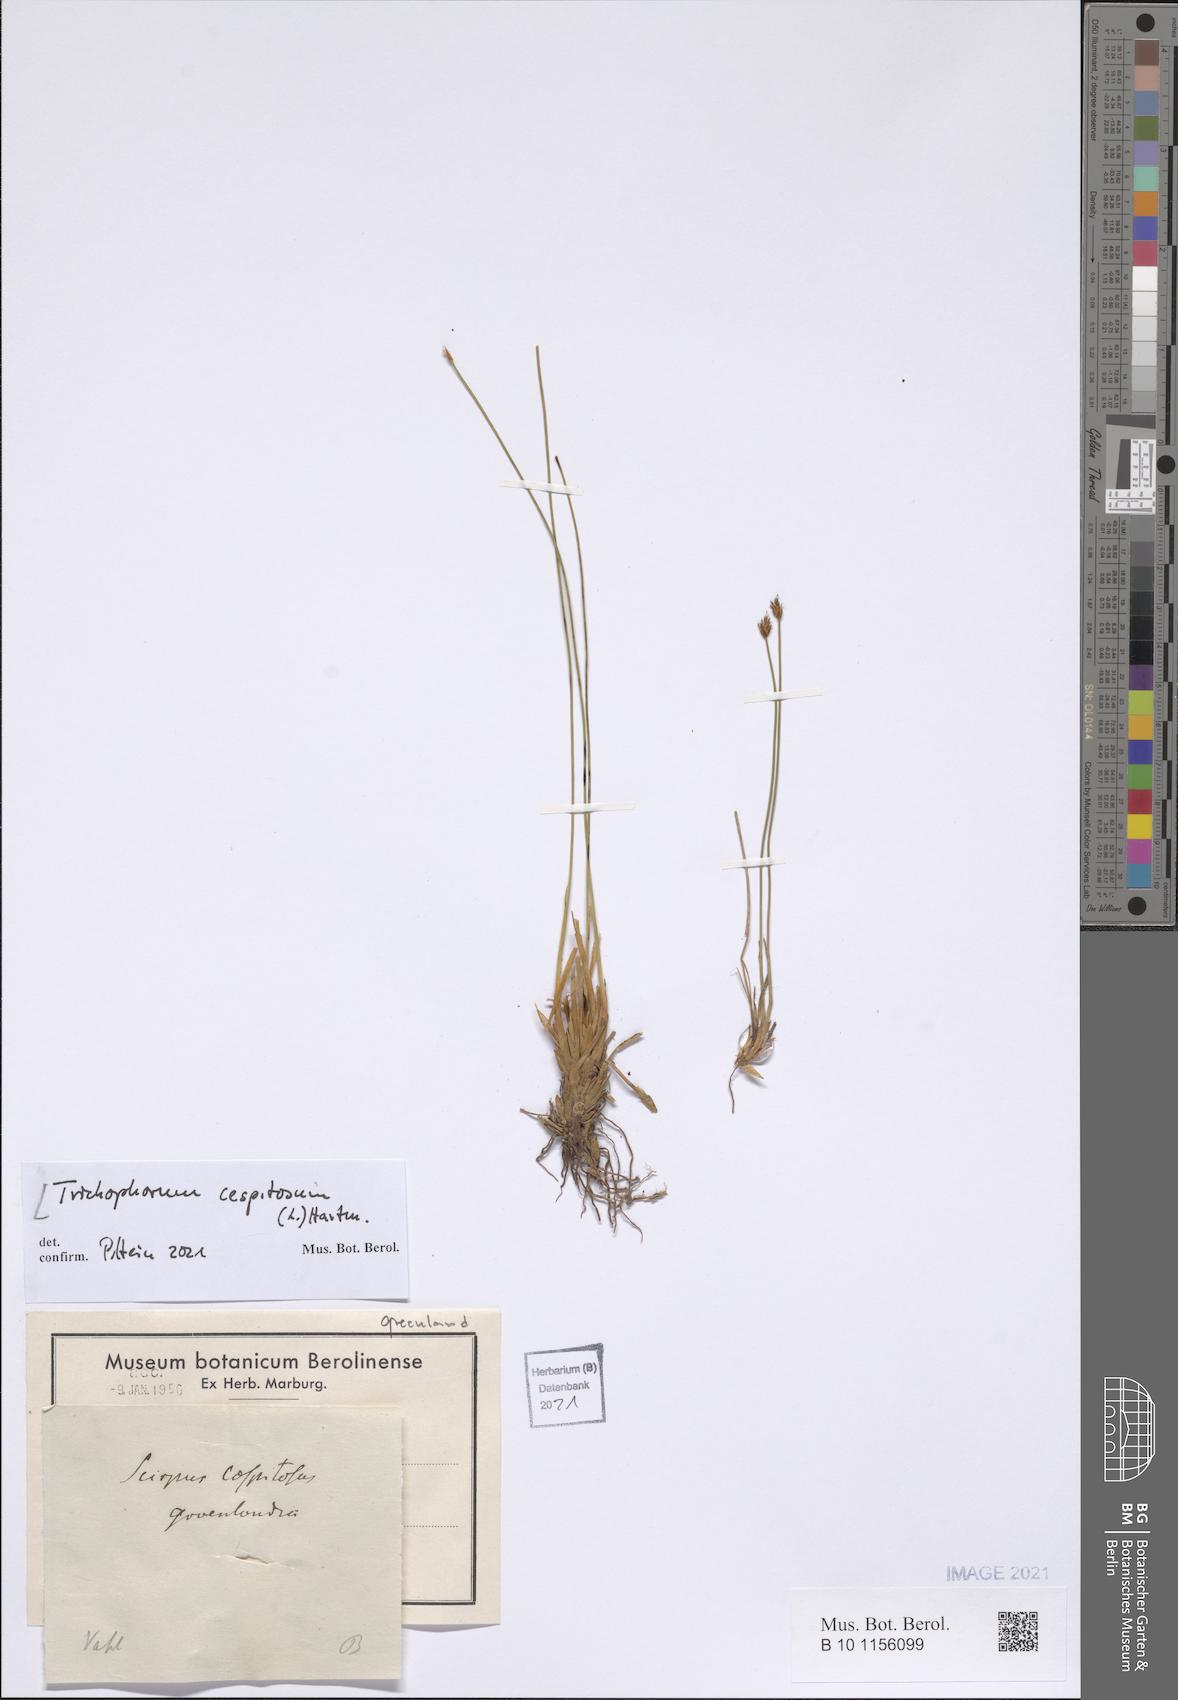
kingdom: Plantae
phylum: Tracheophyta
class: Liliopsida
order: Poales
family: Cyperaceae
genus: Trichophorum
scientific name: Trichophorum cespitosum
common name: Cespitose bulrush
